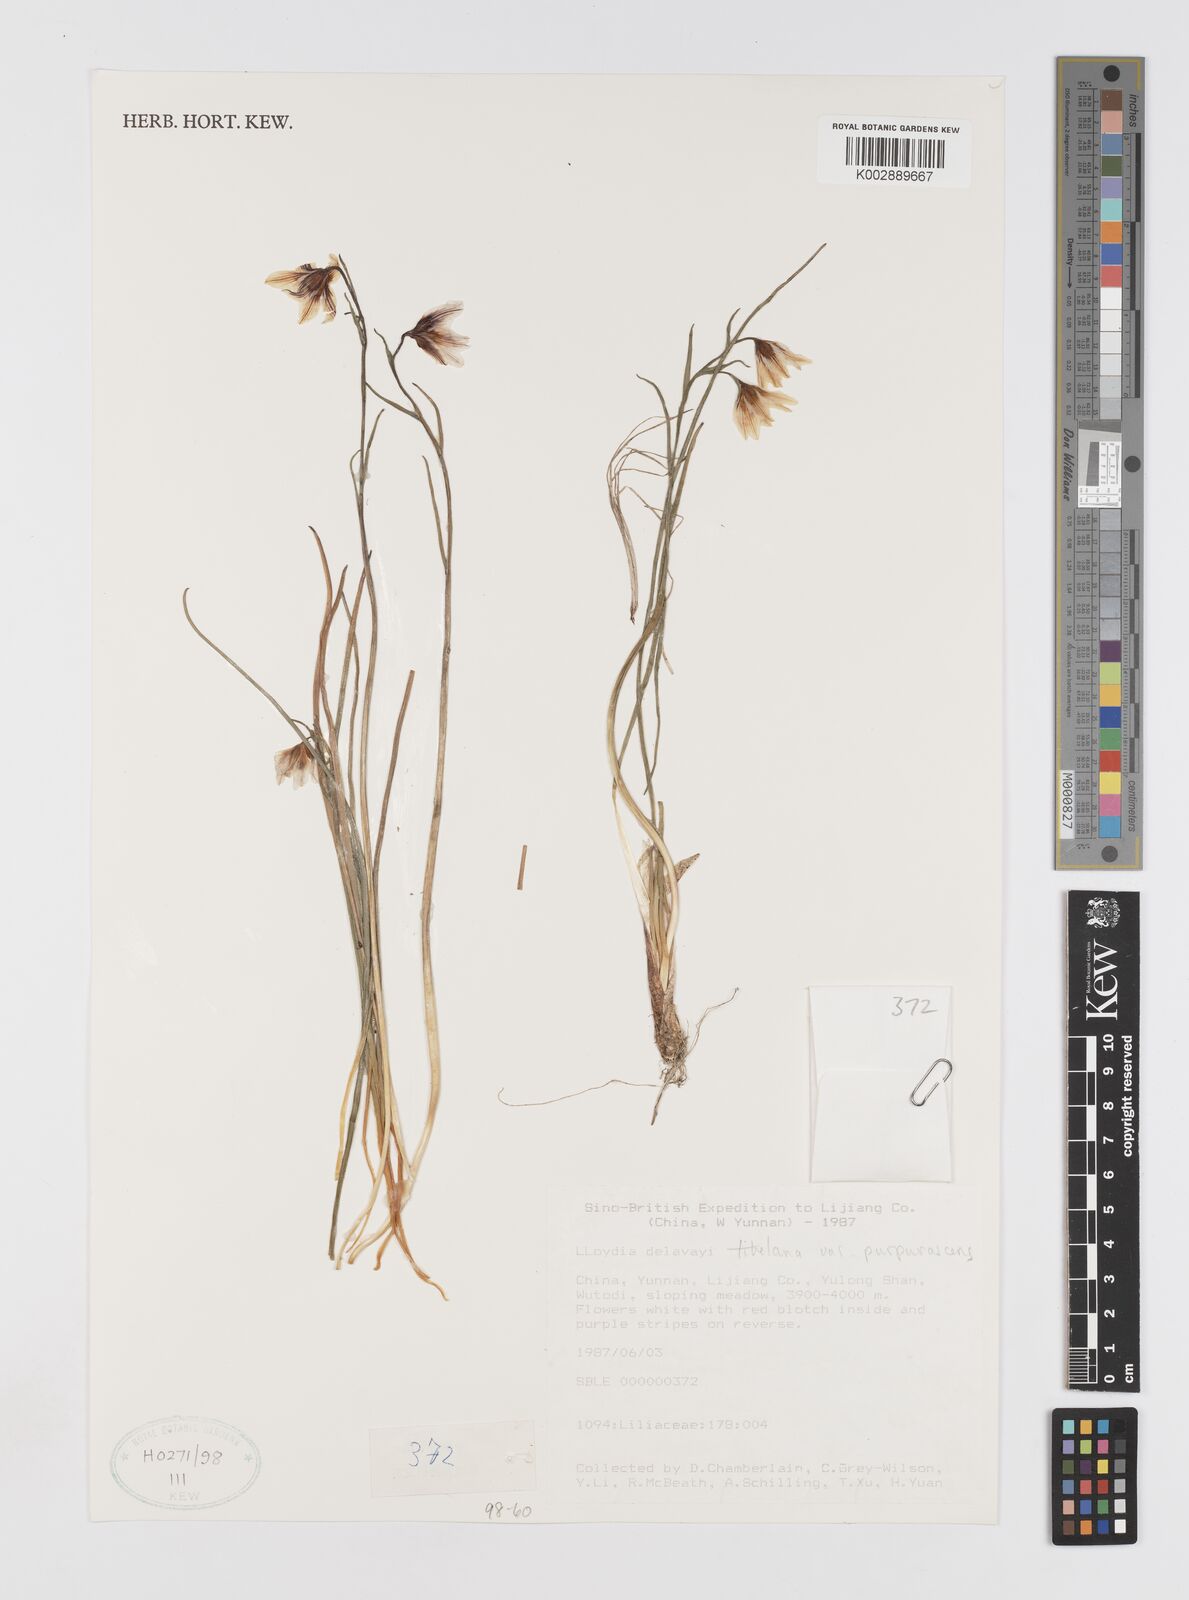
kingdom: Plantae
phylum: Tracheophyta
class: Liliopsida
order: Liliales
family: Liliaceae
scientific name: Liliaceae
